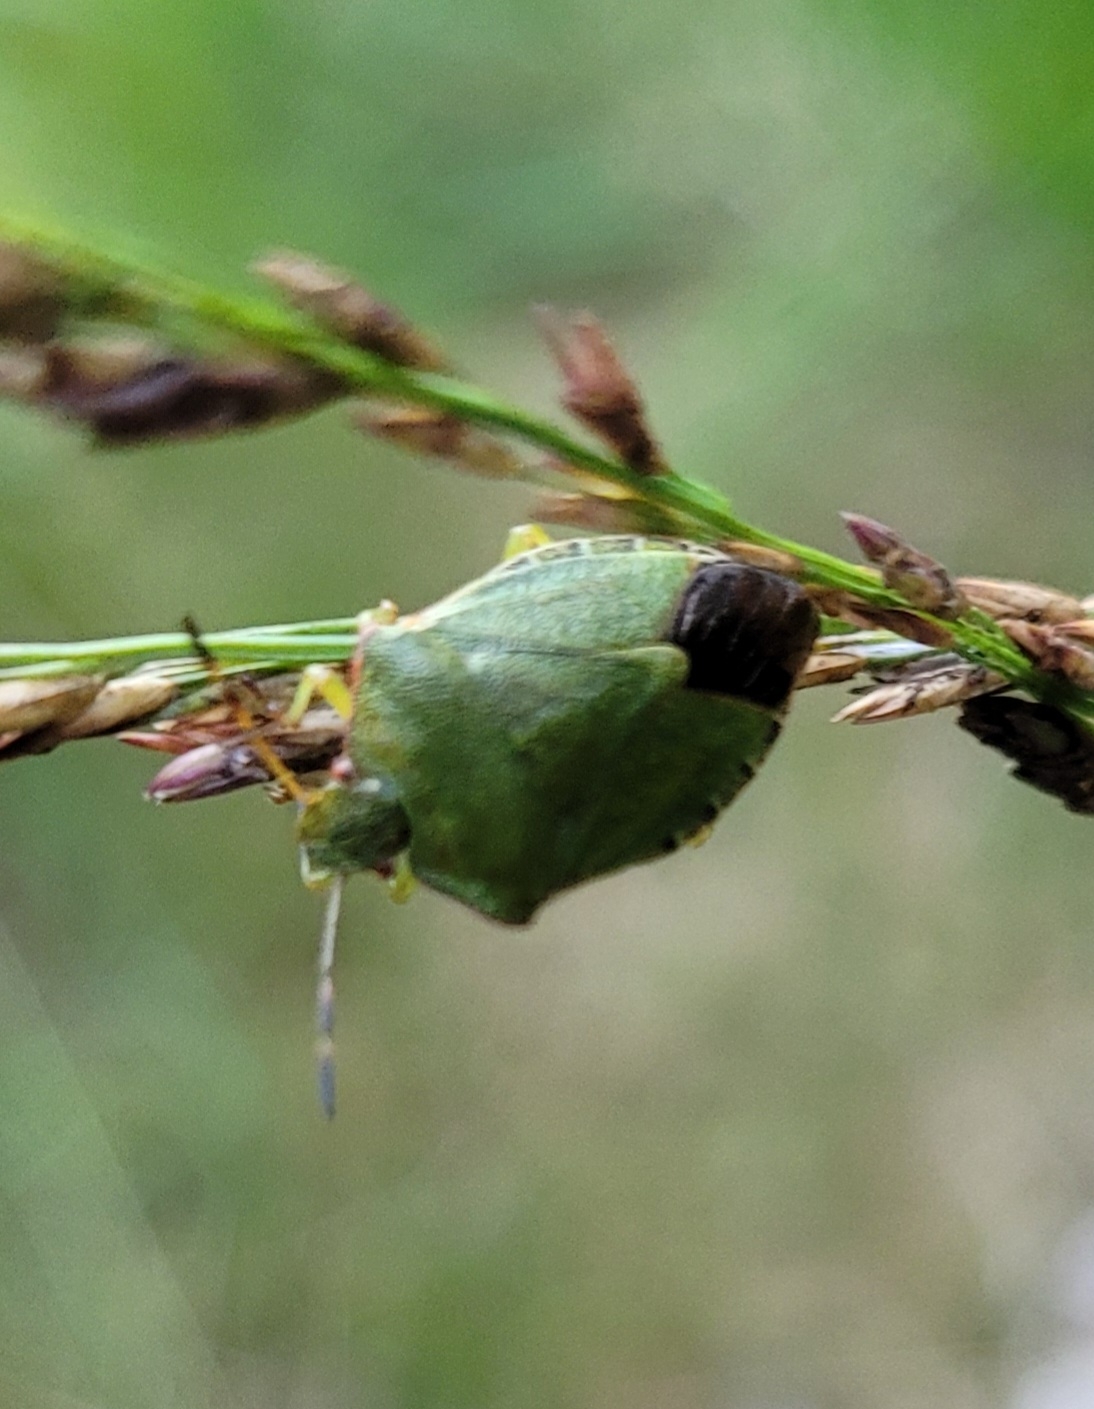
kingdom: Animalia
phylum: Arthropoda
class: Insecta
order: Hemiptera
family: Pentatomidae
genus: Palomena
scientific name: Palomena prasina
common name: Grøn bredtæge
